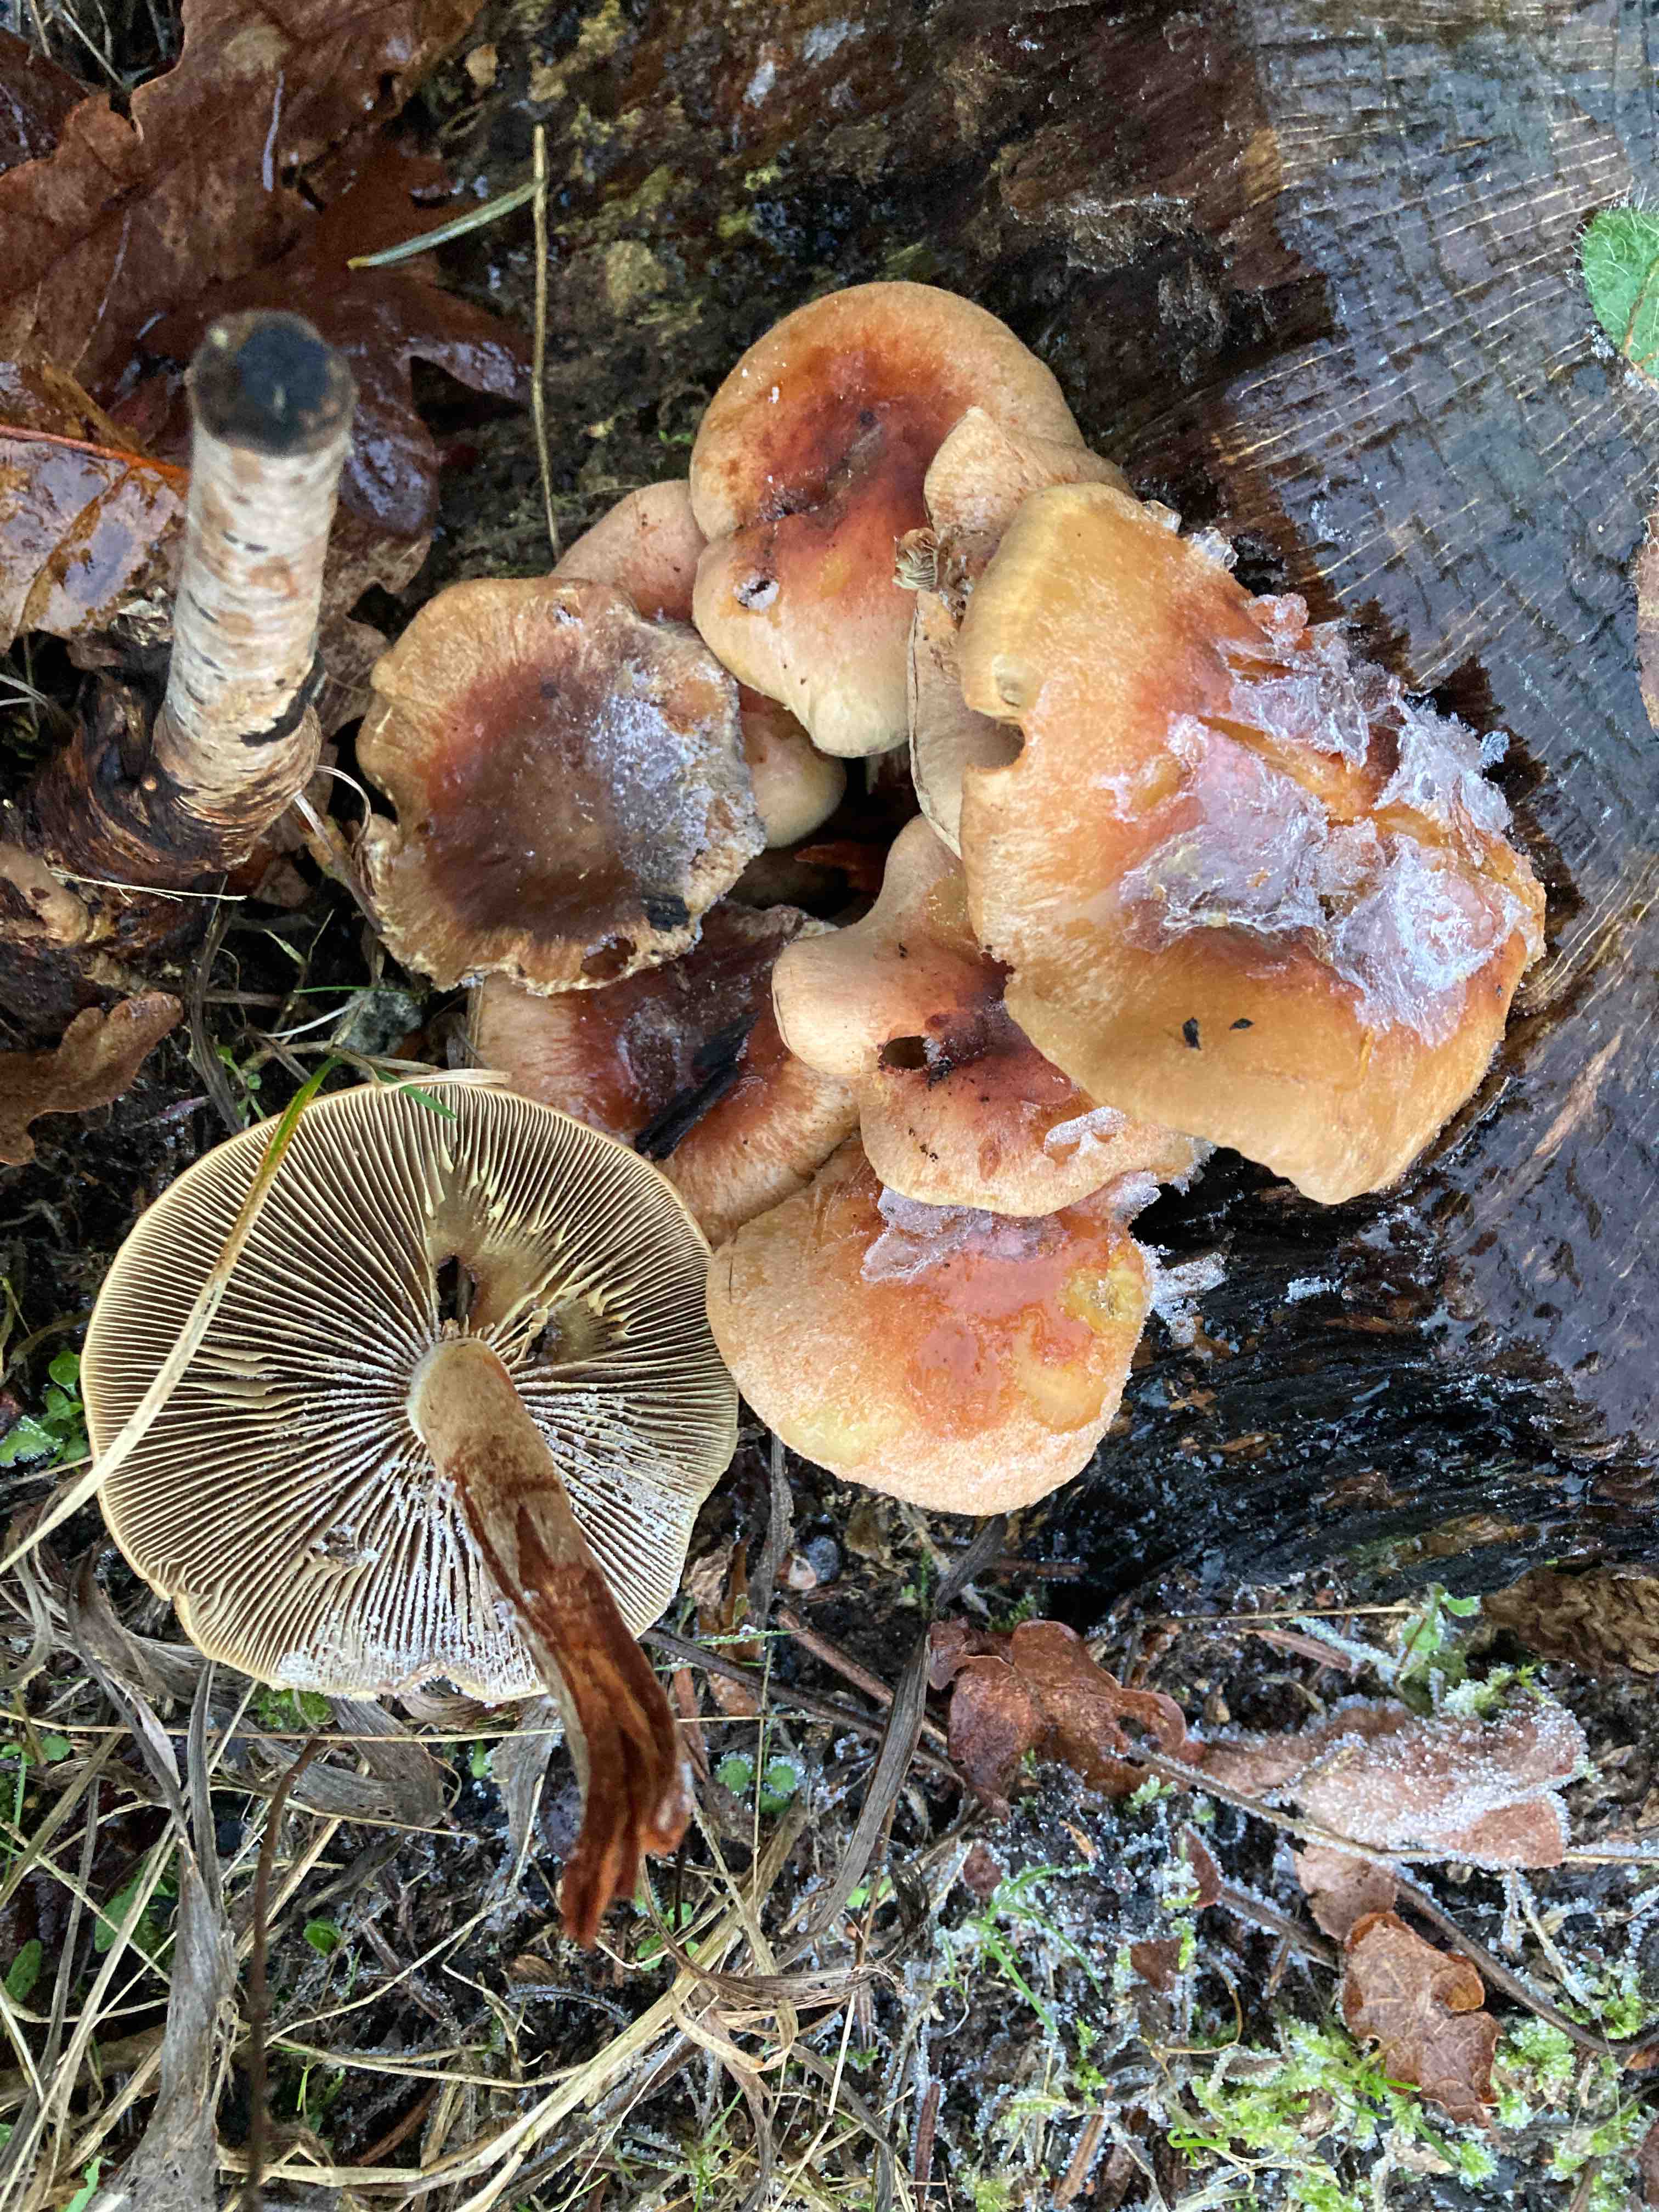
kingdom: Fungi
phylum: Basidiomycota
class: Agaricomycetes
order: Agaricales
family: Strophariaceae
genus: Hypholoma
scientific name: Hypholoma lateritium
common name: teglrød svovlhat
